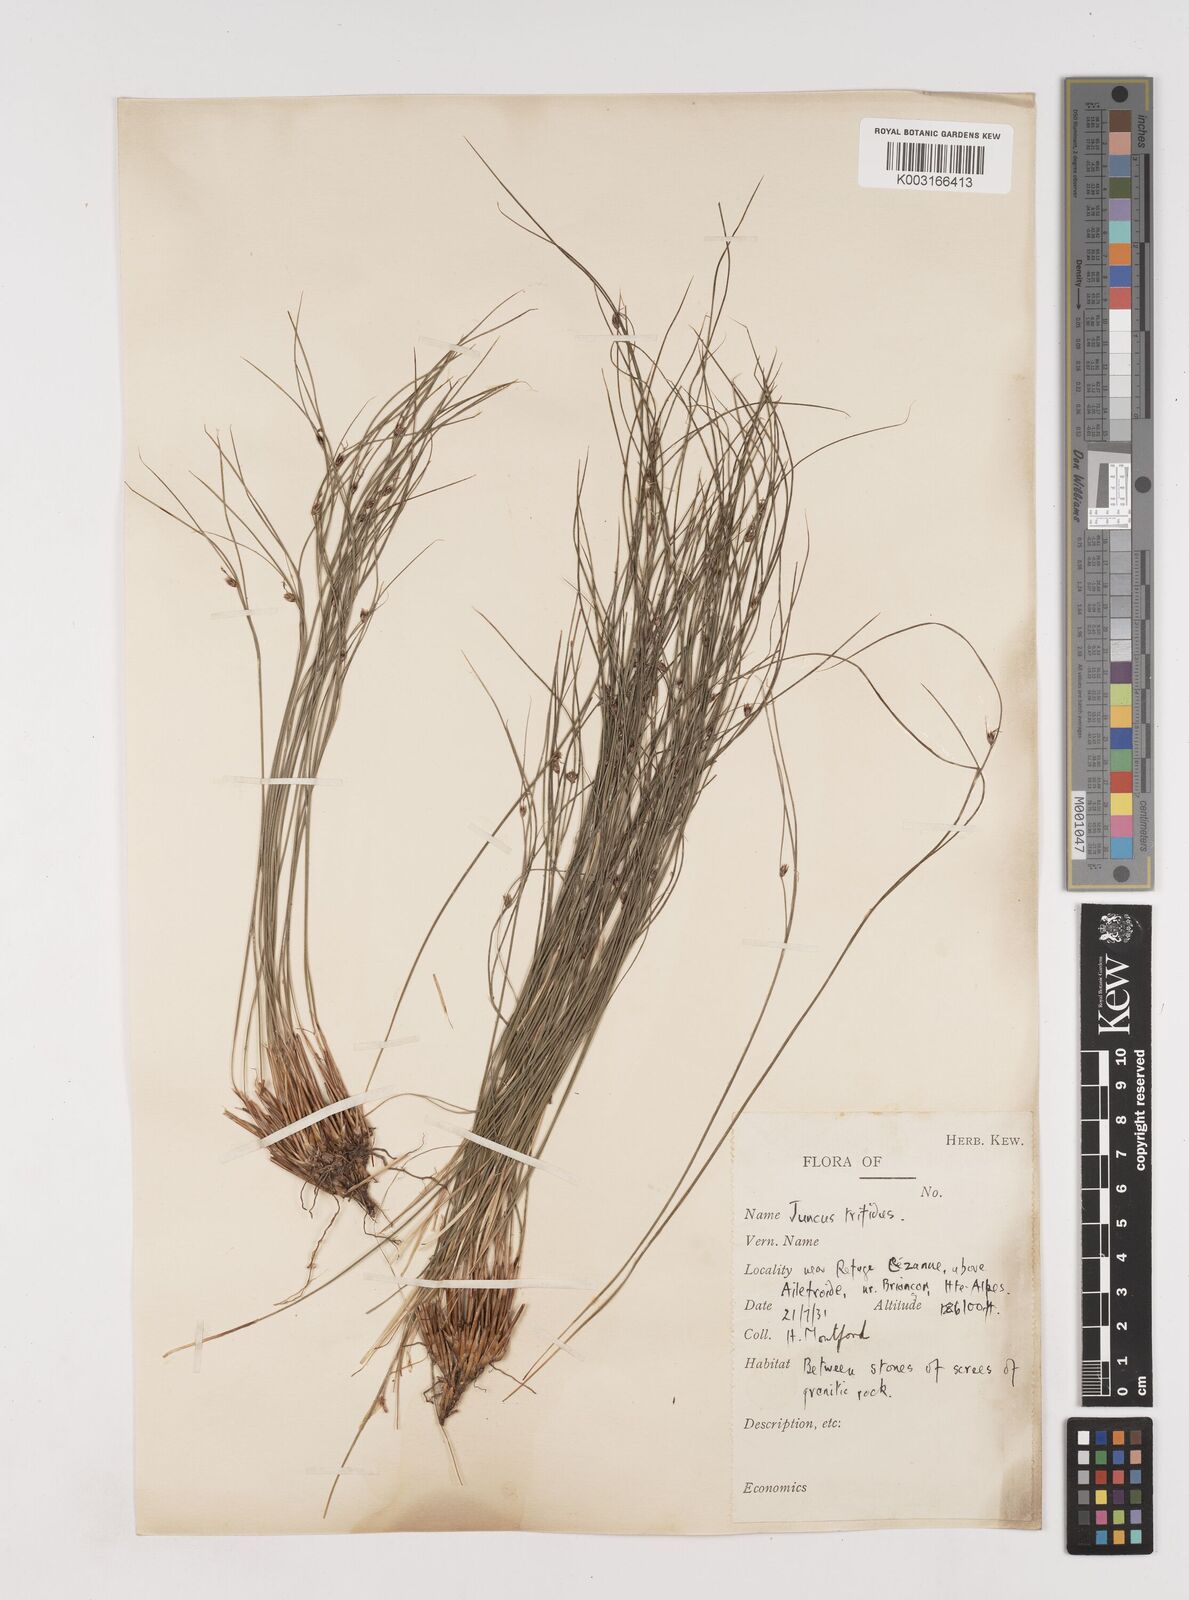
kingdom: Plantae
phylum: Tracheophyta
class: Liliopsida
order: Poales
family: Juncaceae
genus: Oreojuncus
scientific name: Oreojuncus trifidus
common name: Highland rush
